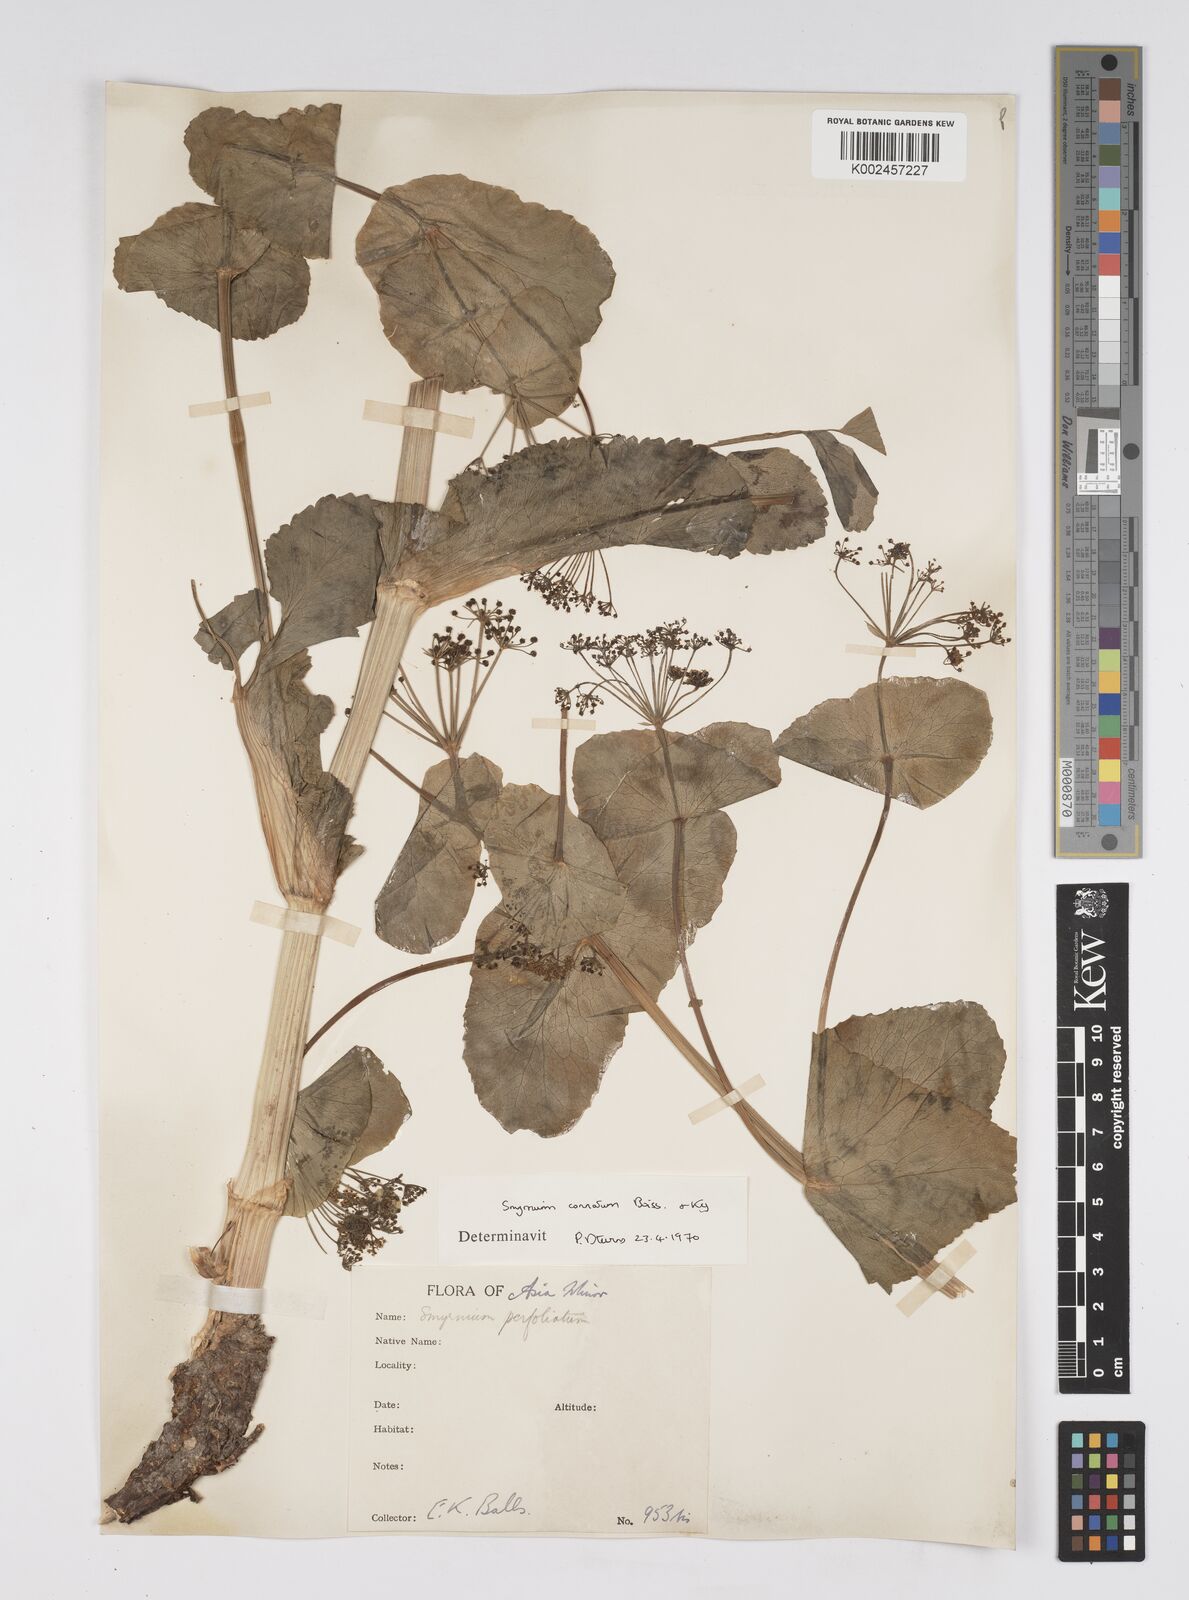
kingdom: Plantae
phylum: Tracheophyta
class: Magnoliopsida
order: Apiales
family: Apiaceae
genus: Smyrnium
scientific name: Smyrnium connatum
